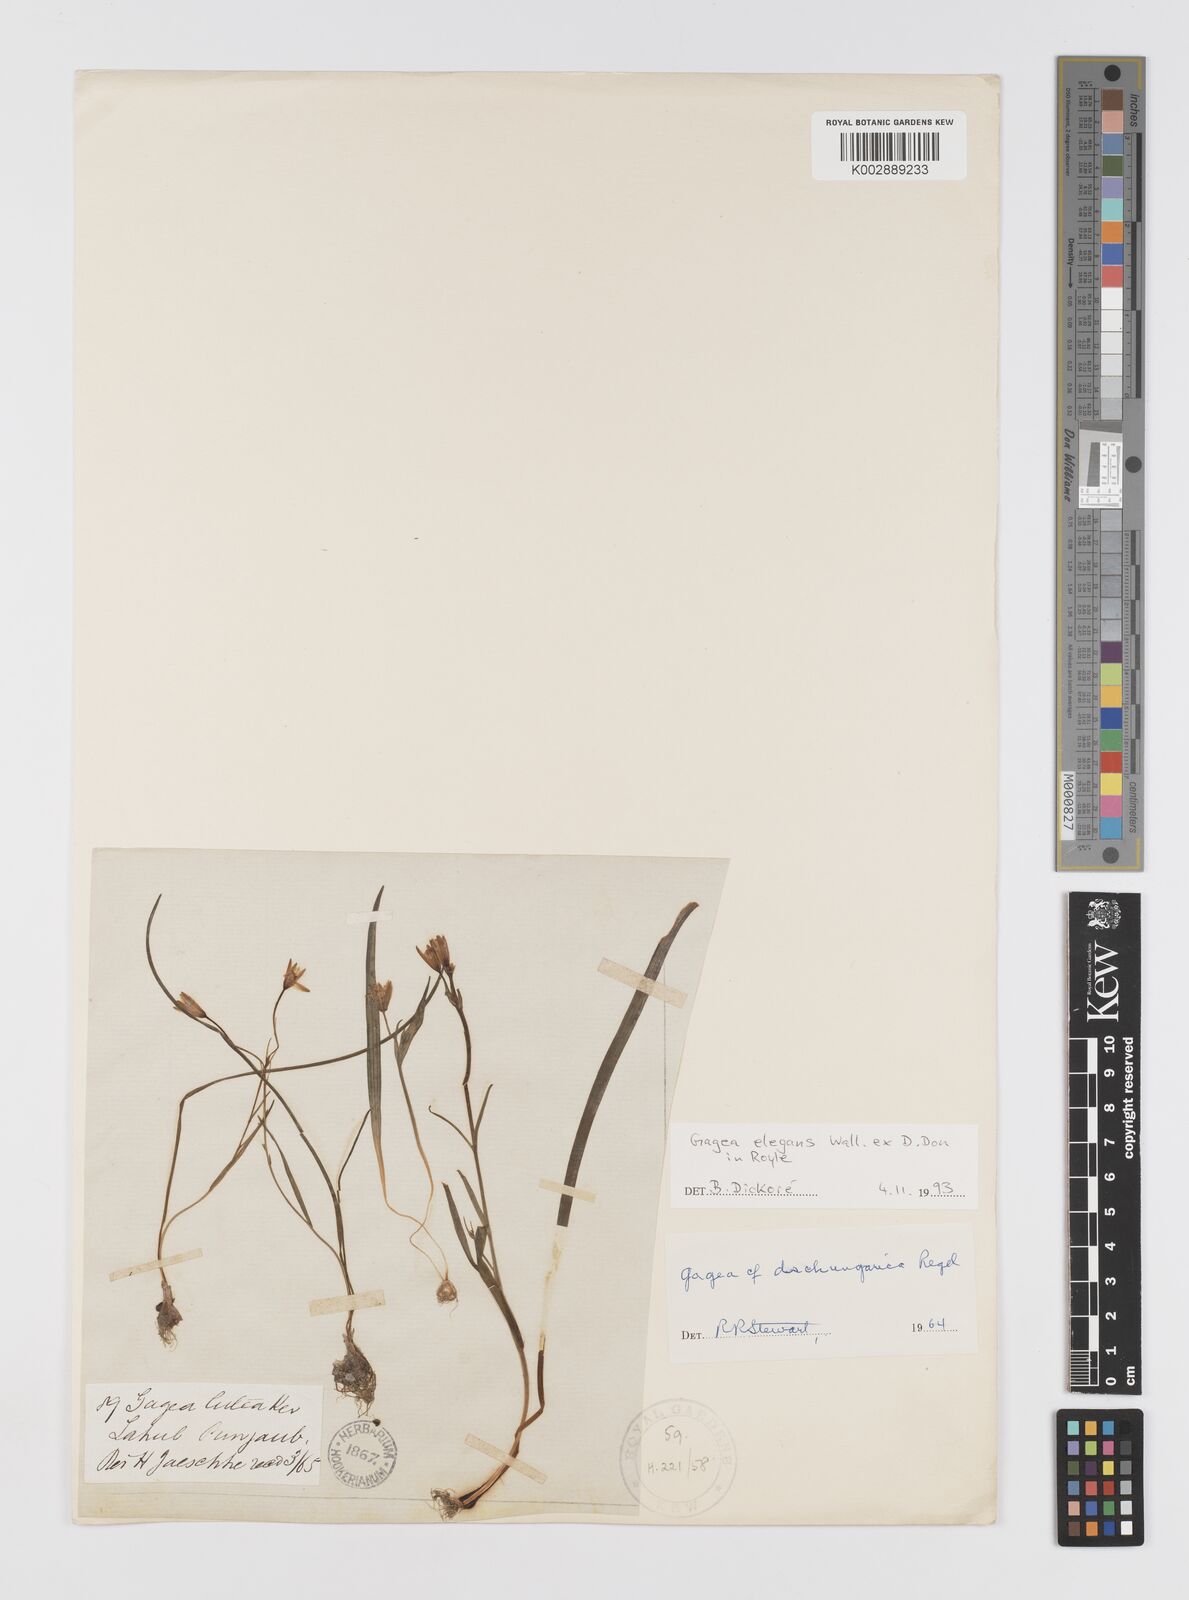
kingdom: Plantae
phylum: Tracheophyta
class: Liliopsida
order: Liliales
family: Liliaceae
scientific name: Liliaceae
